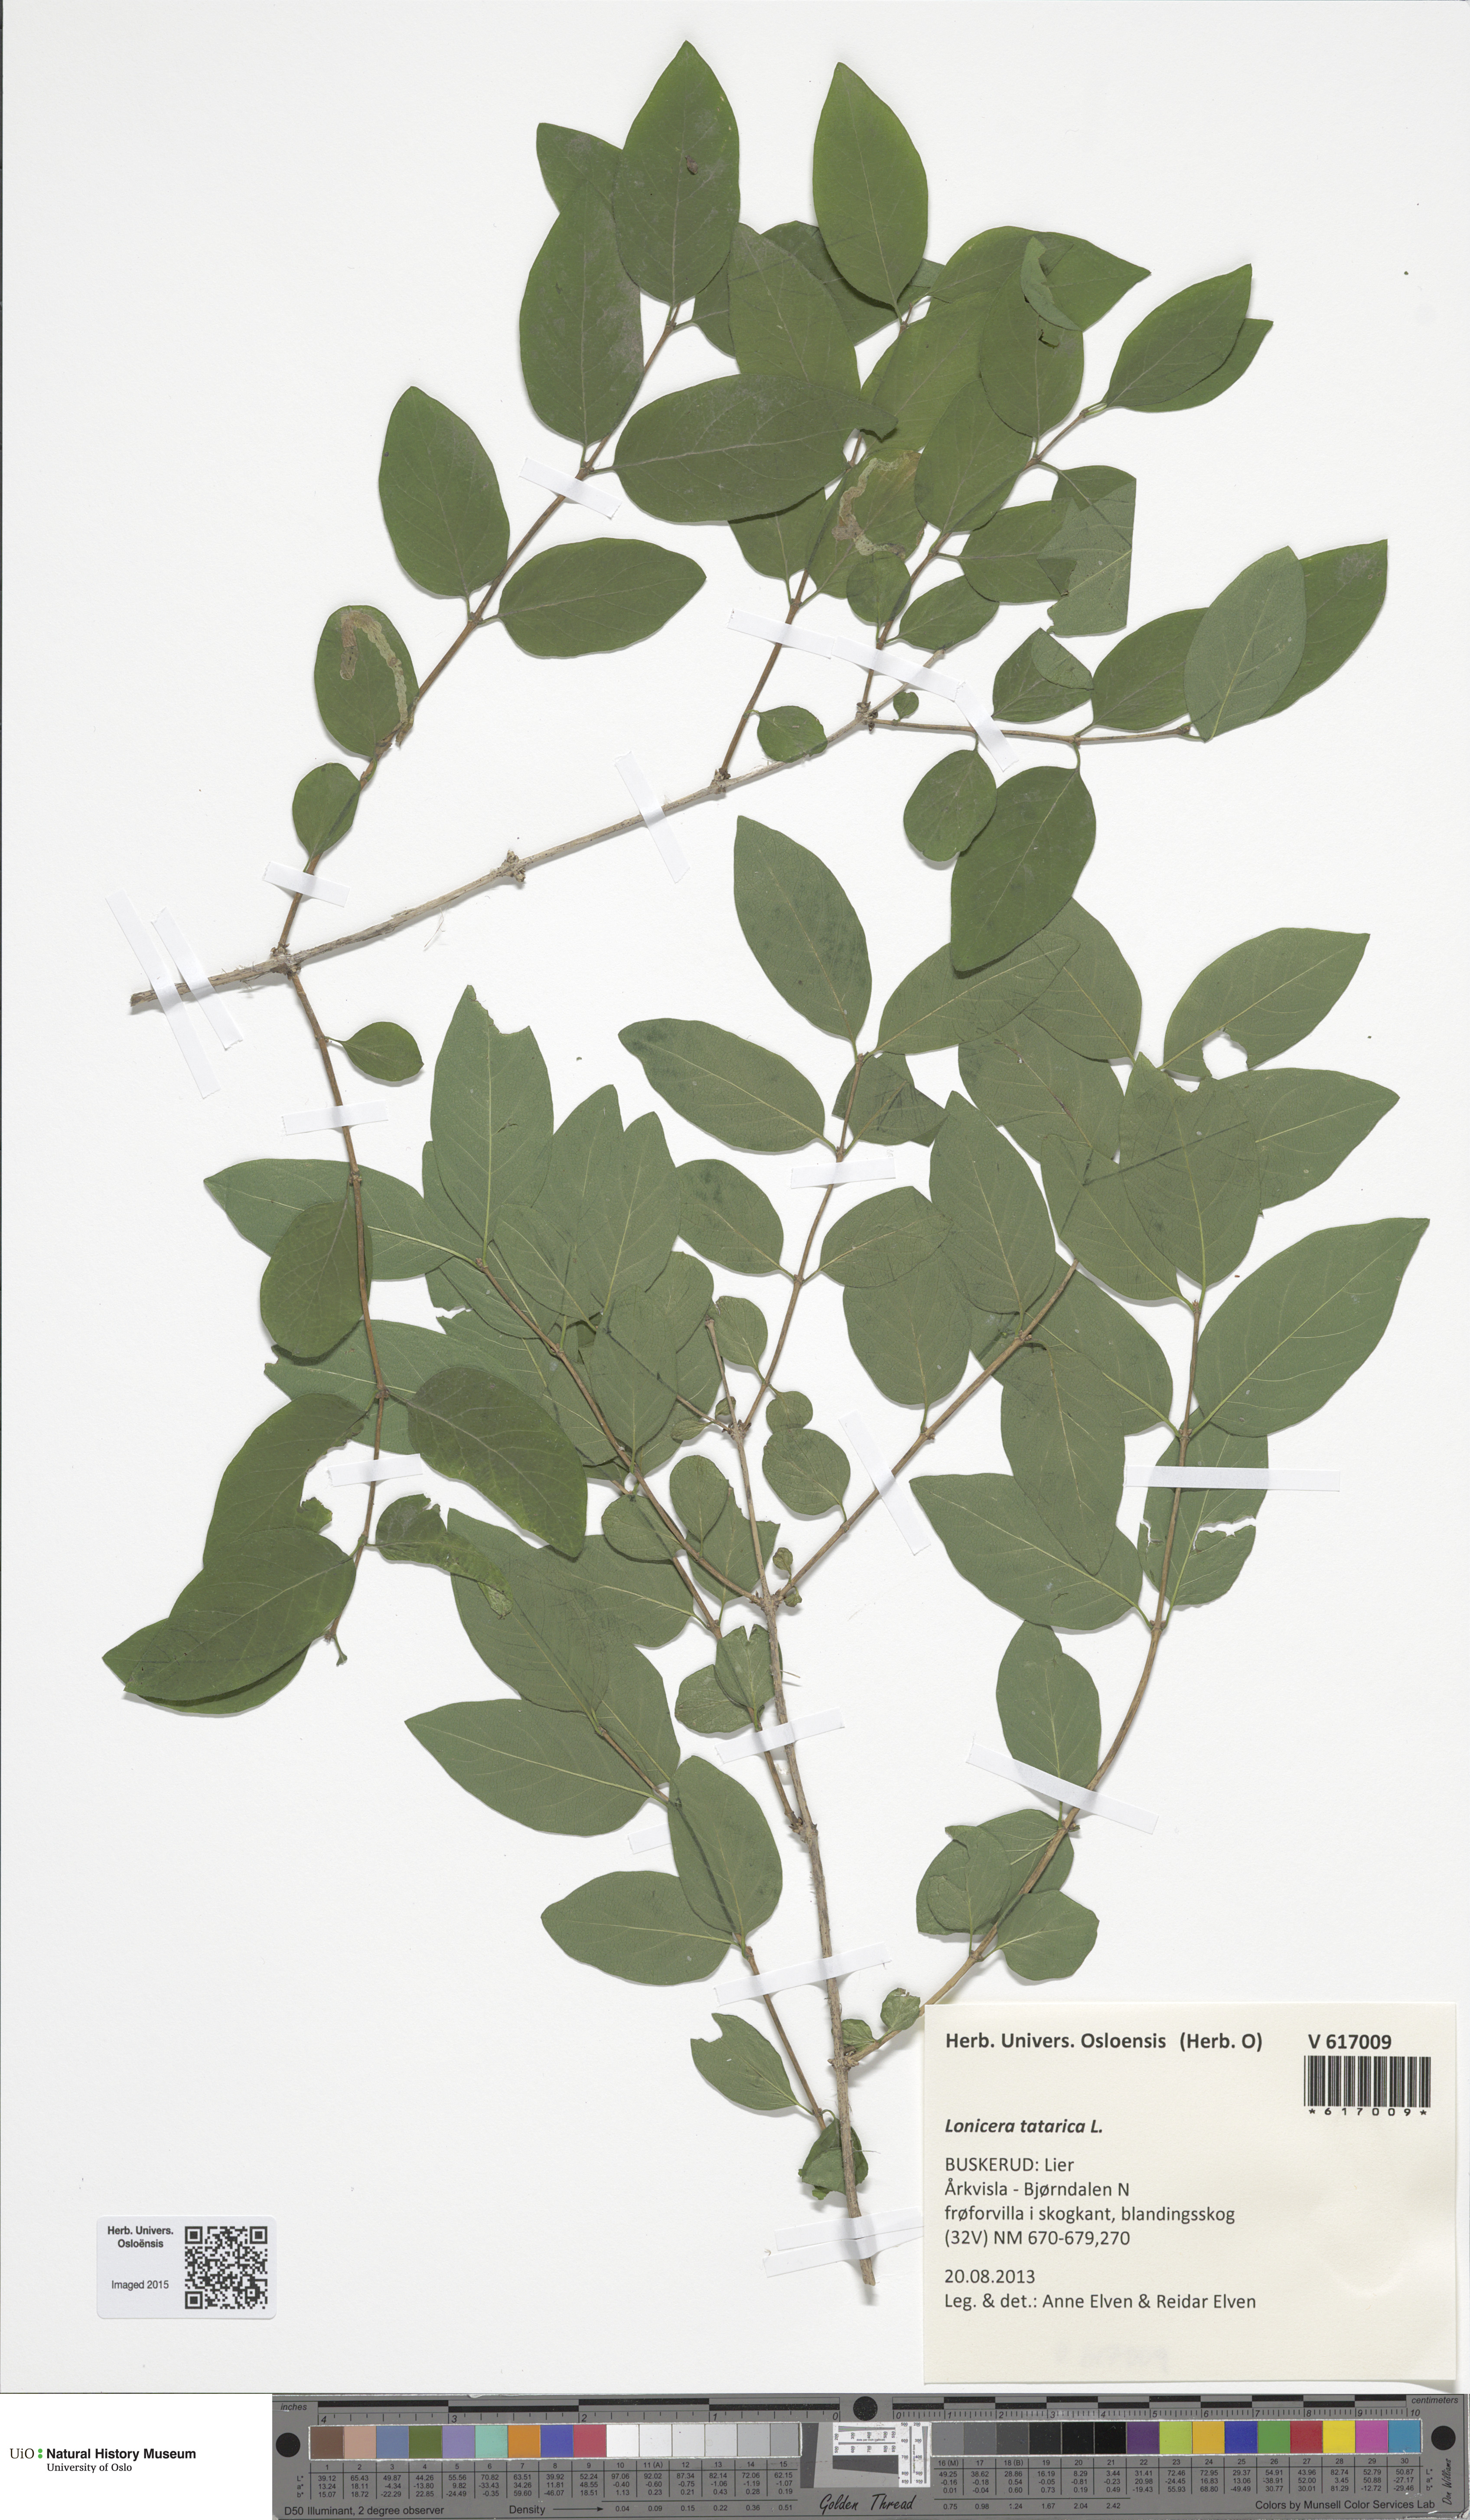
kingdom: Plantae
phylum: Tracheophyta
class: Magnoliopsida
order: Dipsacales
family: Caprifoliaceae
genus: Lonicera
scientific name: Lonicera tatarica
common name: Tatarian honeysuckle
